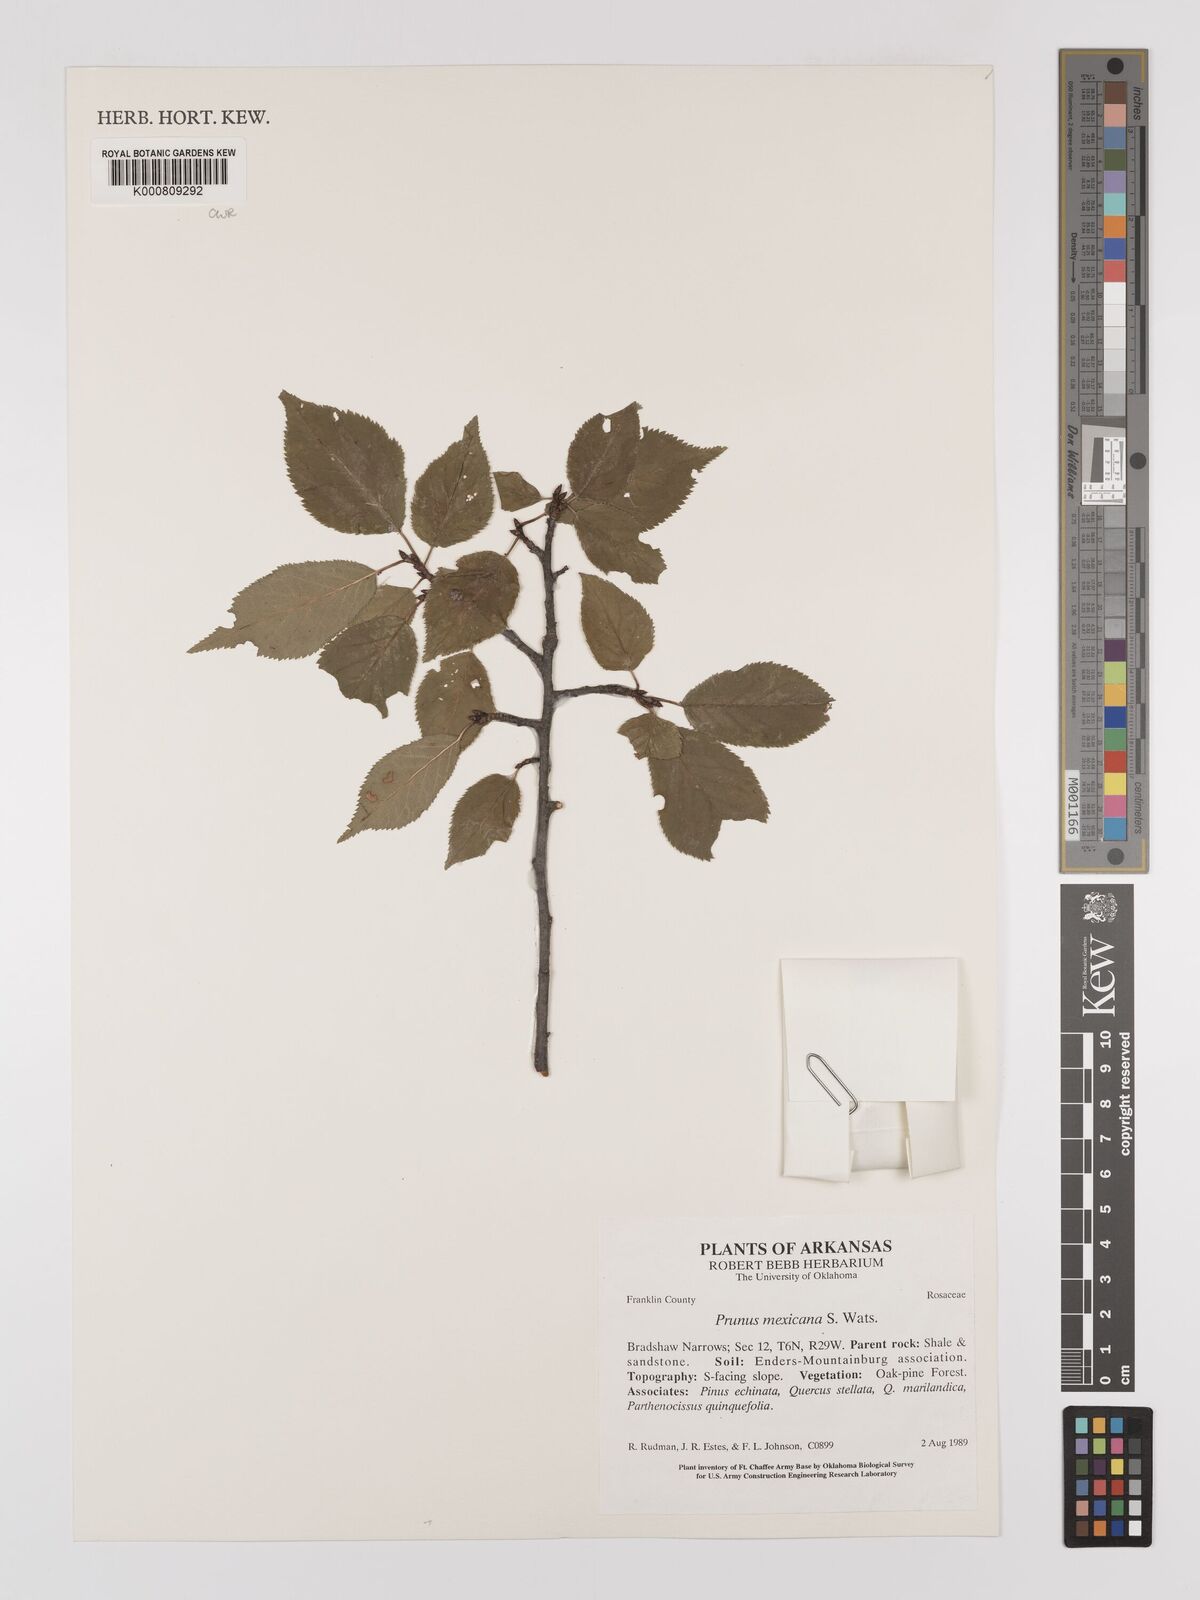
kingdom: Plantae
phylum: Tracheophyta
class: Magnoliopsida
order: Rosales
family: Rosaceae
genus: Prunus
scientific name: Prunus mexicana
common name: Mexican plum
